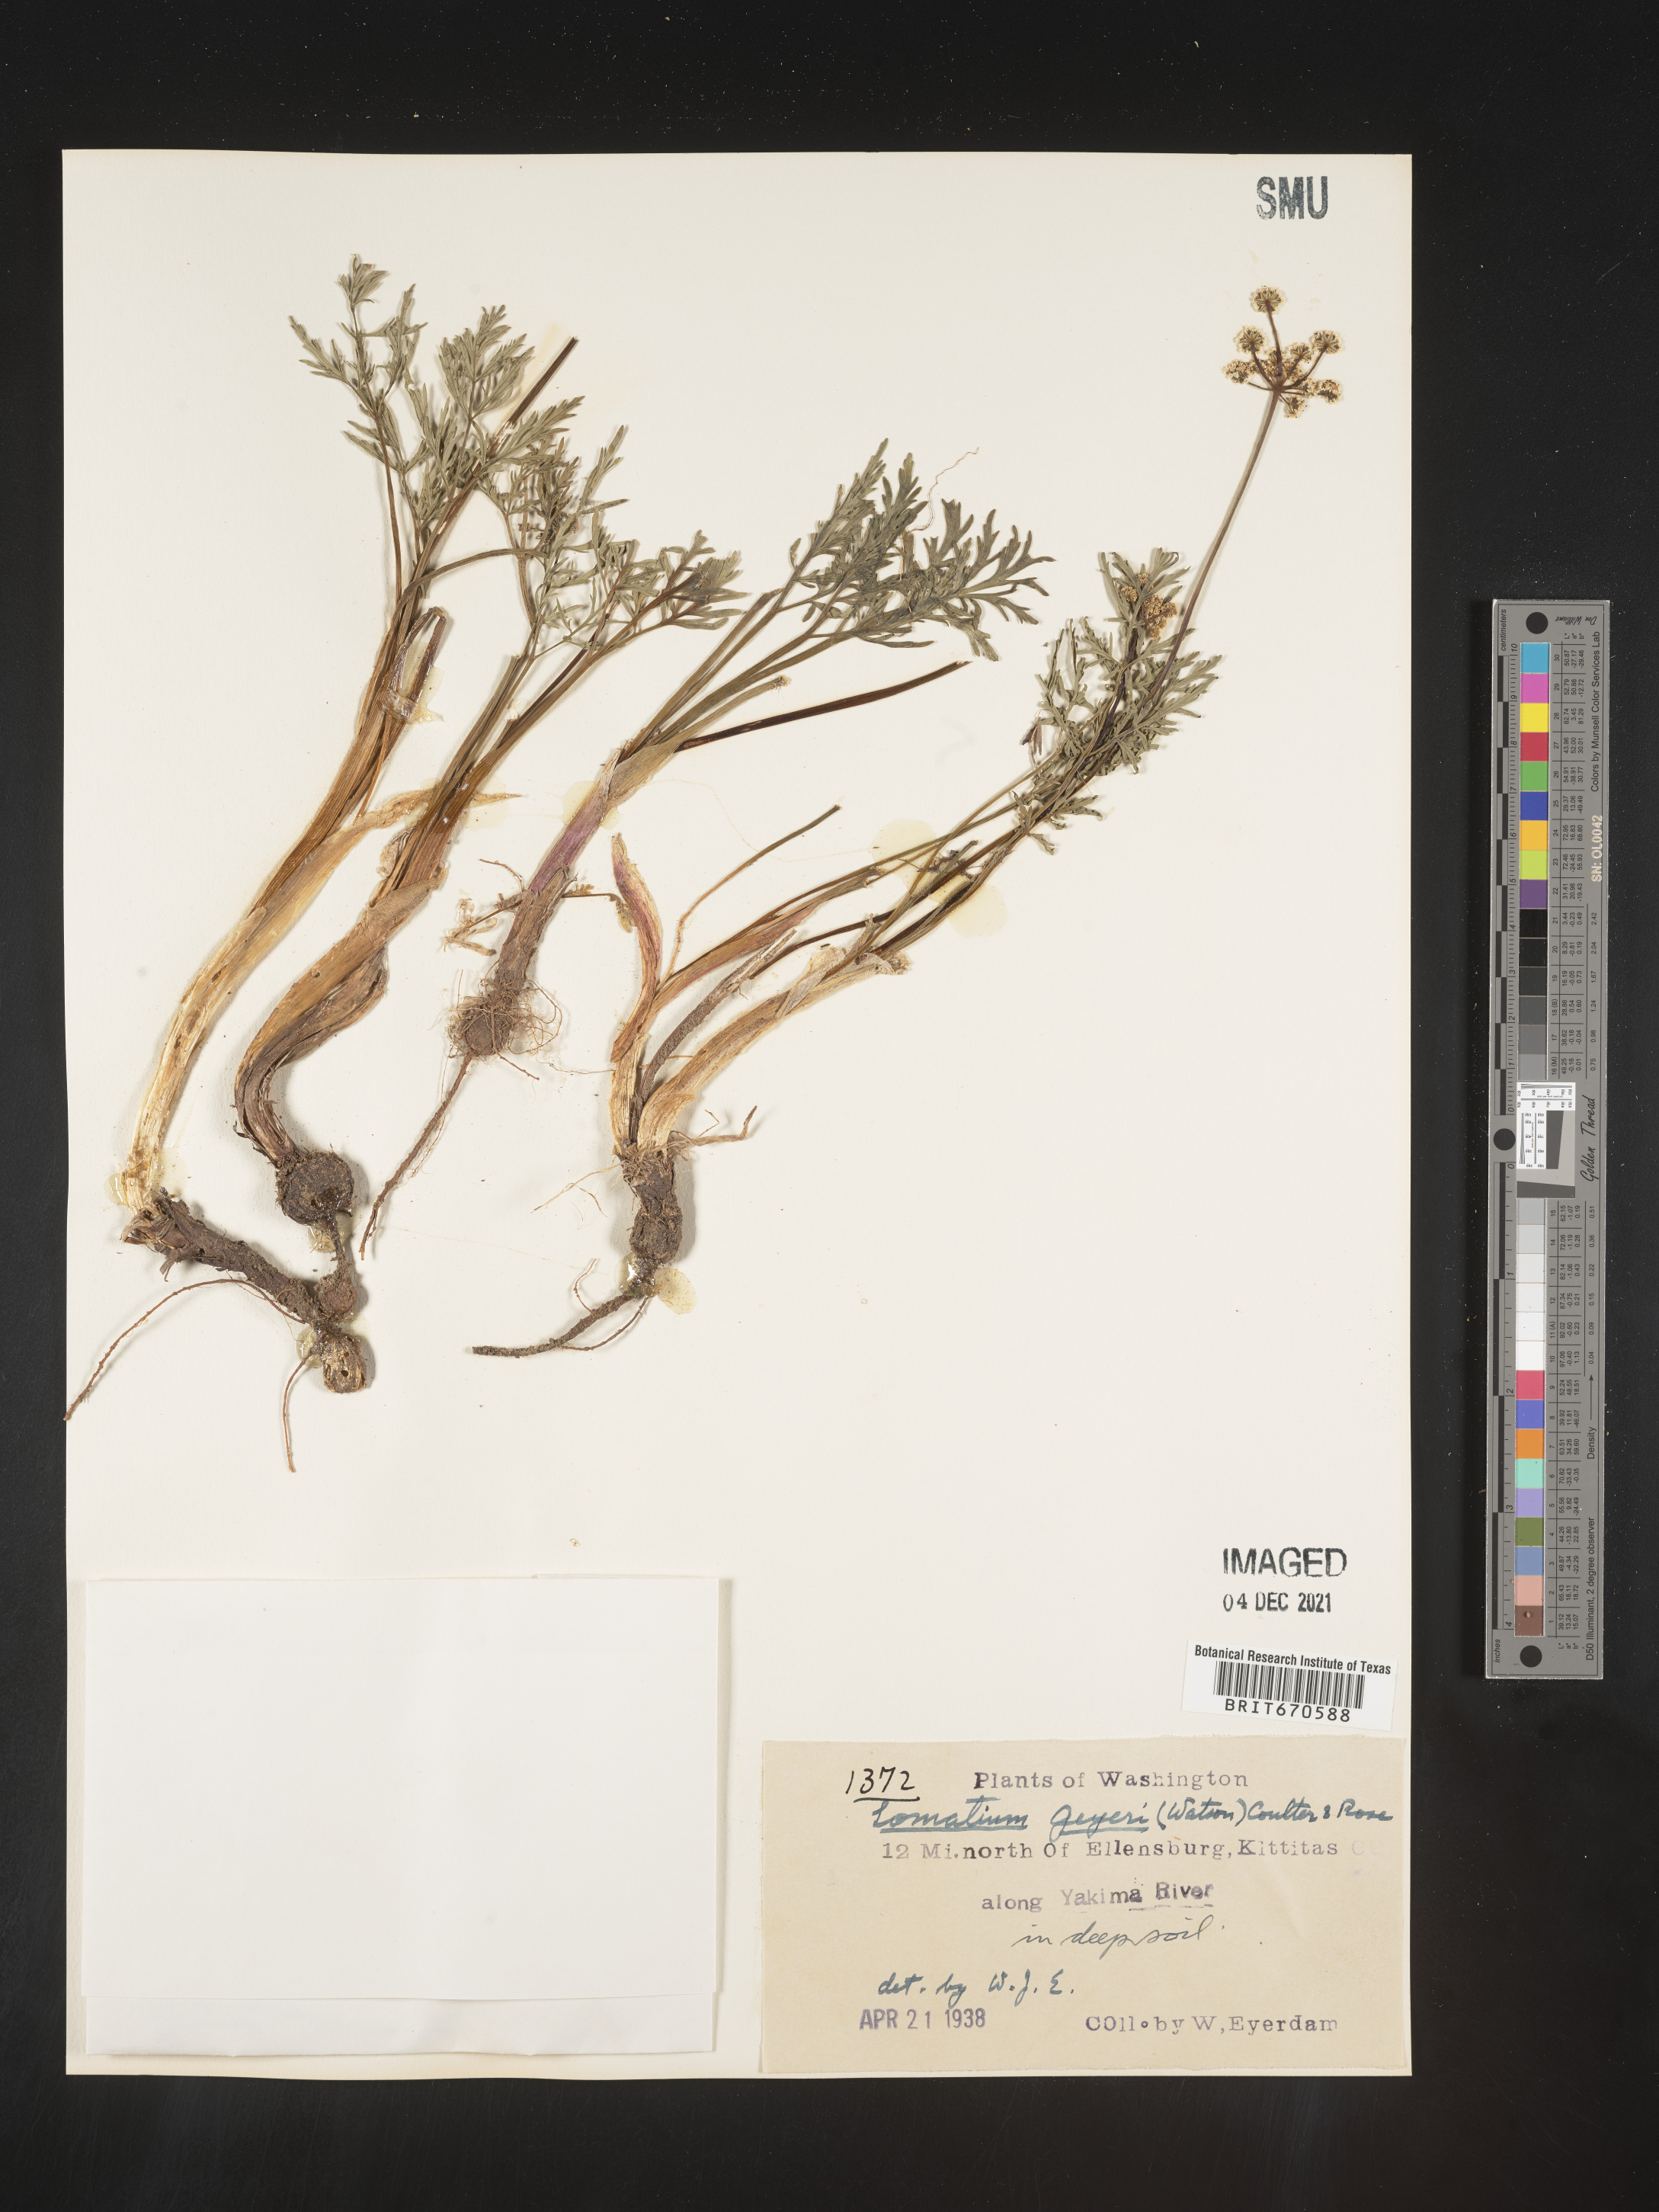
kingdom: Plantae
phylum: Tracheophyta
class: Magnoliopsida
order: Apiales
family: Apiaceae
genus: Lomatium
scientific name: Lomatium geyeri
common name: Geyer's biscuitroot
